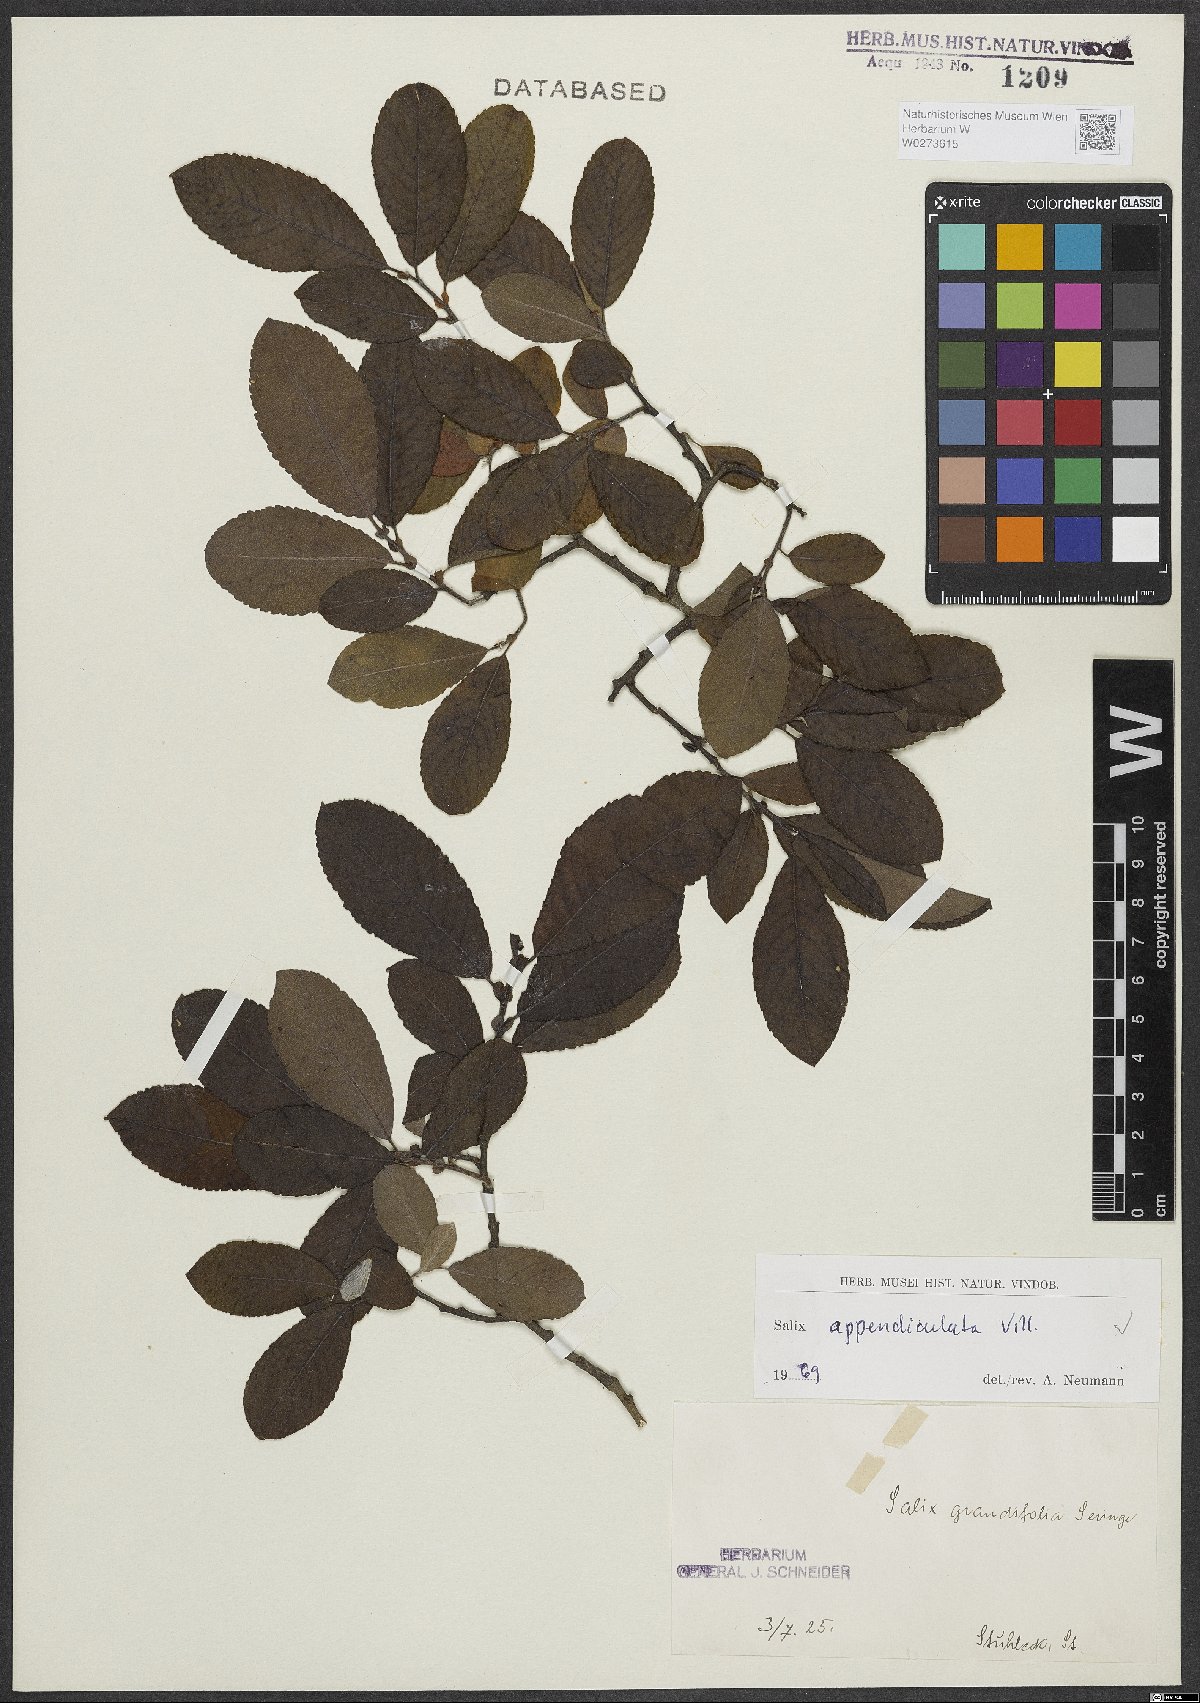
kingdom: Plantae
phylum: Tracheophyta
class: Magnoliopsida
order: Malpighiales
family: Salicaceae
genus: Salix
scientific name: Salix appendiculata
